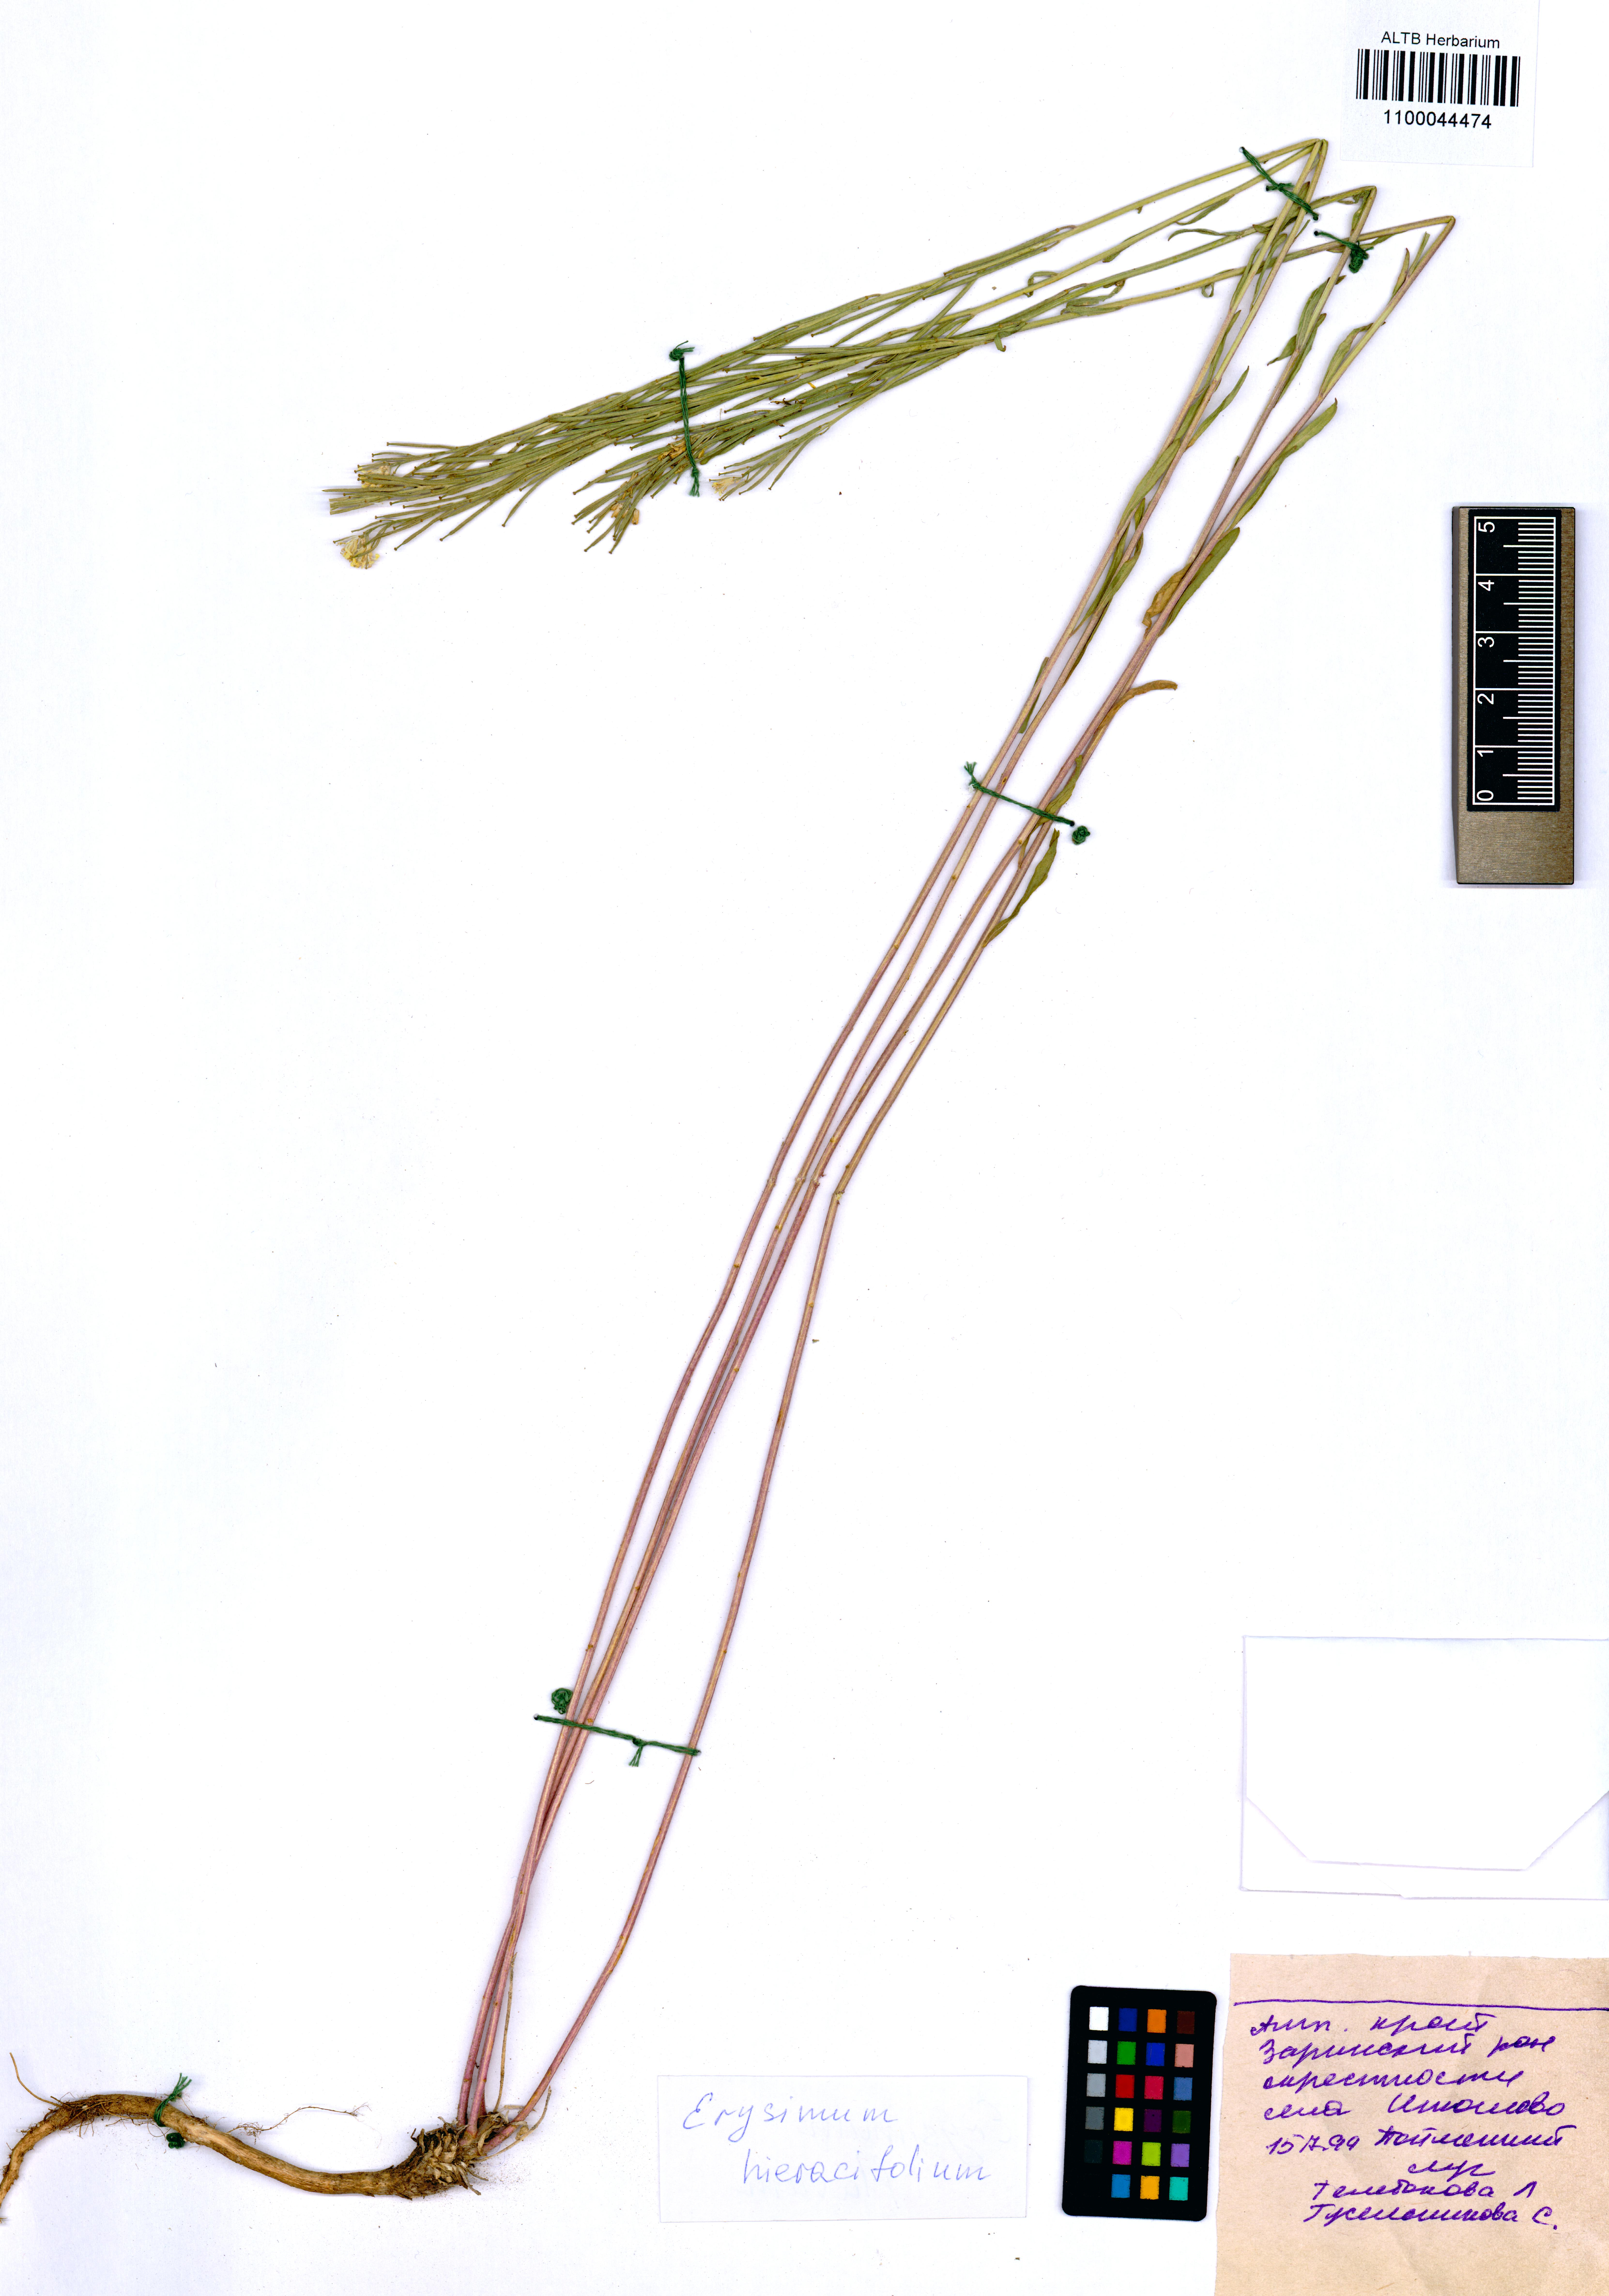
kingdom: Plantae
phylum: Tracheophyta
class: Magnoliopsida
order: Brassicales
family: Brassicaceae
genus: Erysimum
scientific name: Erysimum hieraciifolium
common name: European wallflower
